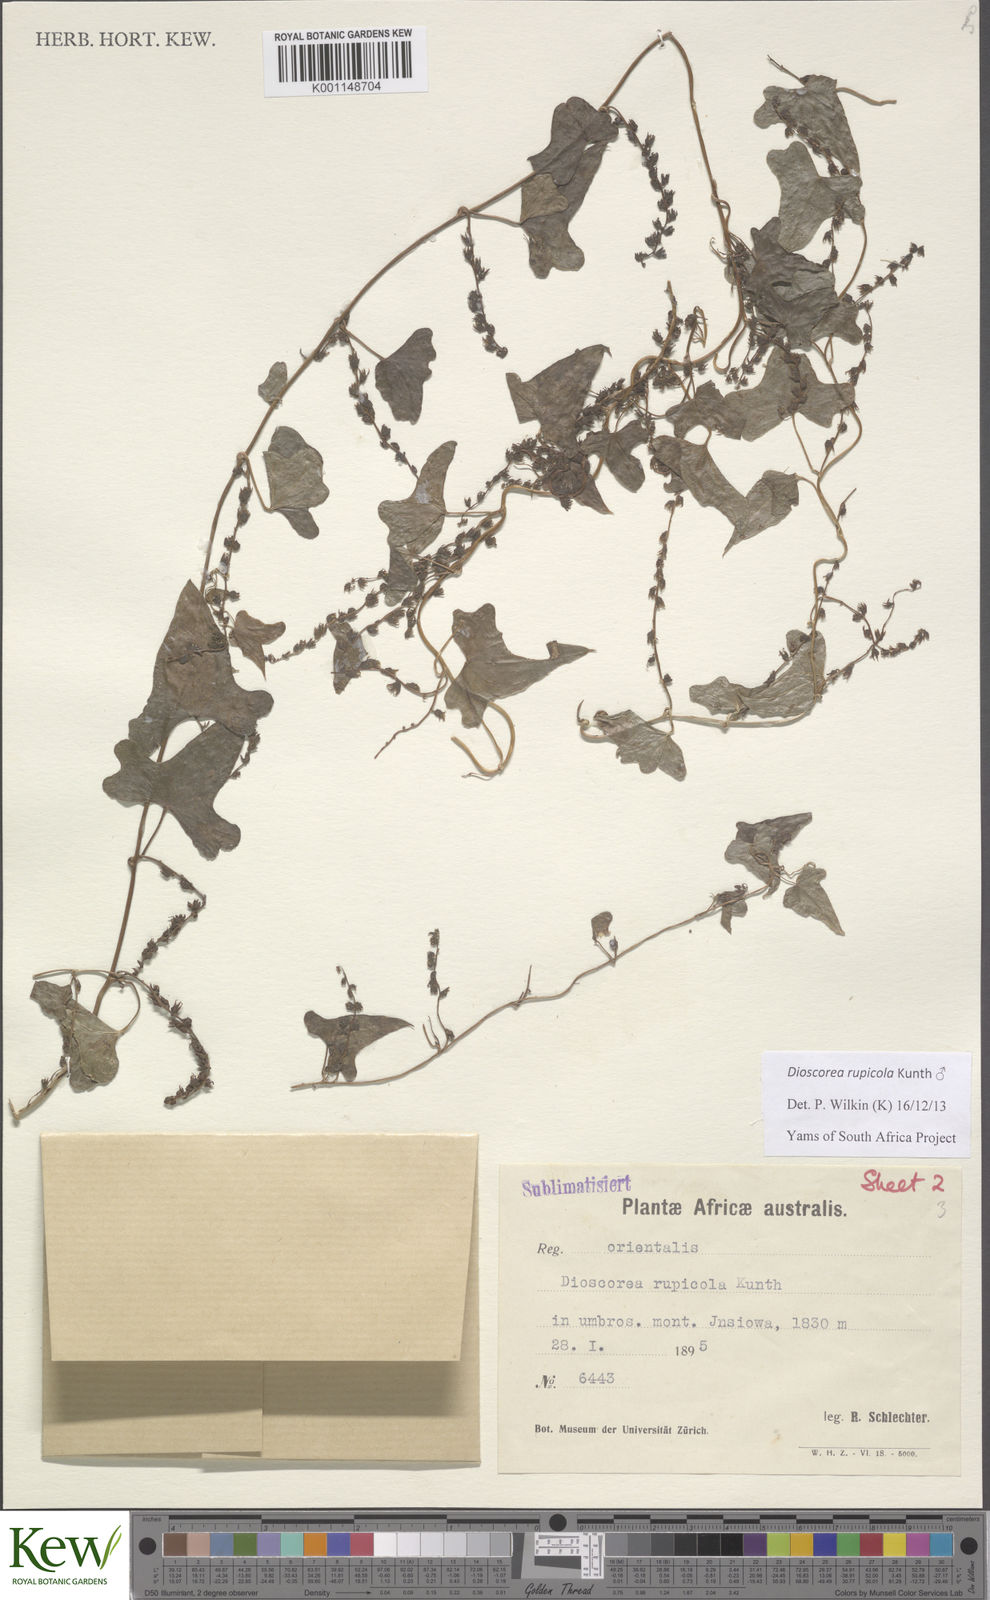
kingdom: Plantae
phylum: Tracheophyta
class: Liliopsida
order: Dioscoreales
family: Dioscoreaceae
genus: Dioscorea
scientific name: Dioscorea rupicola
